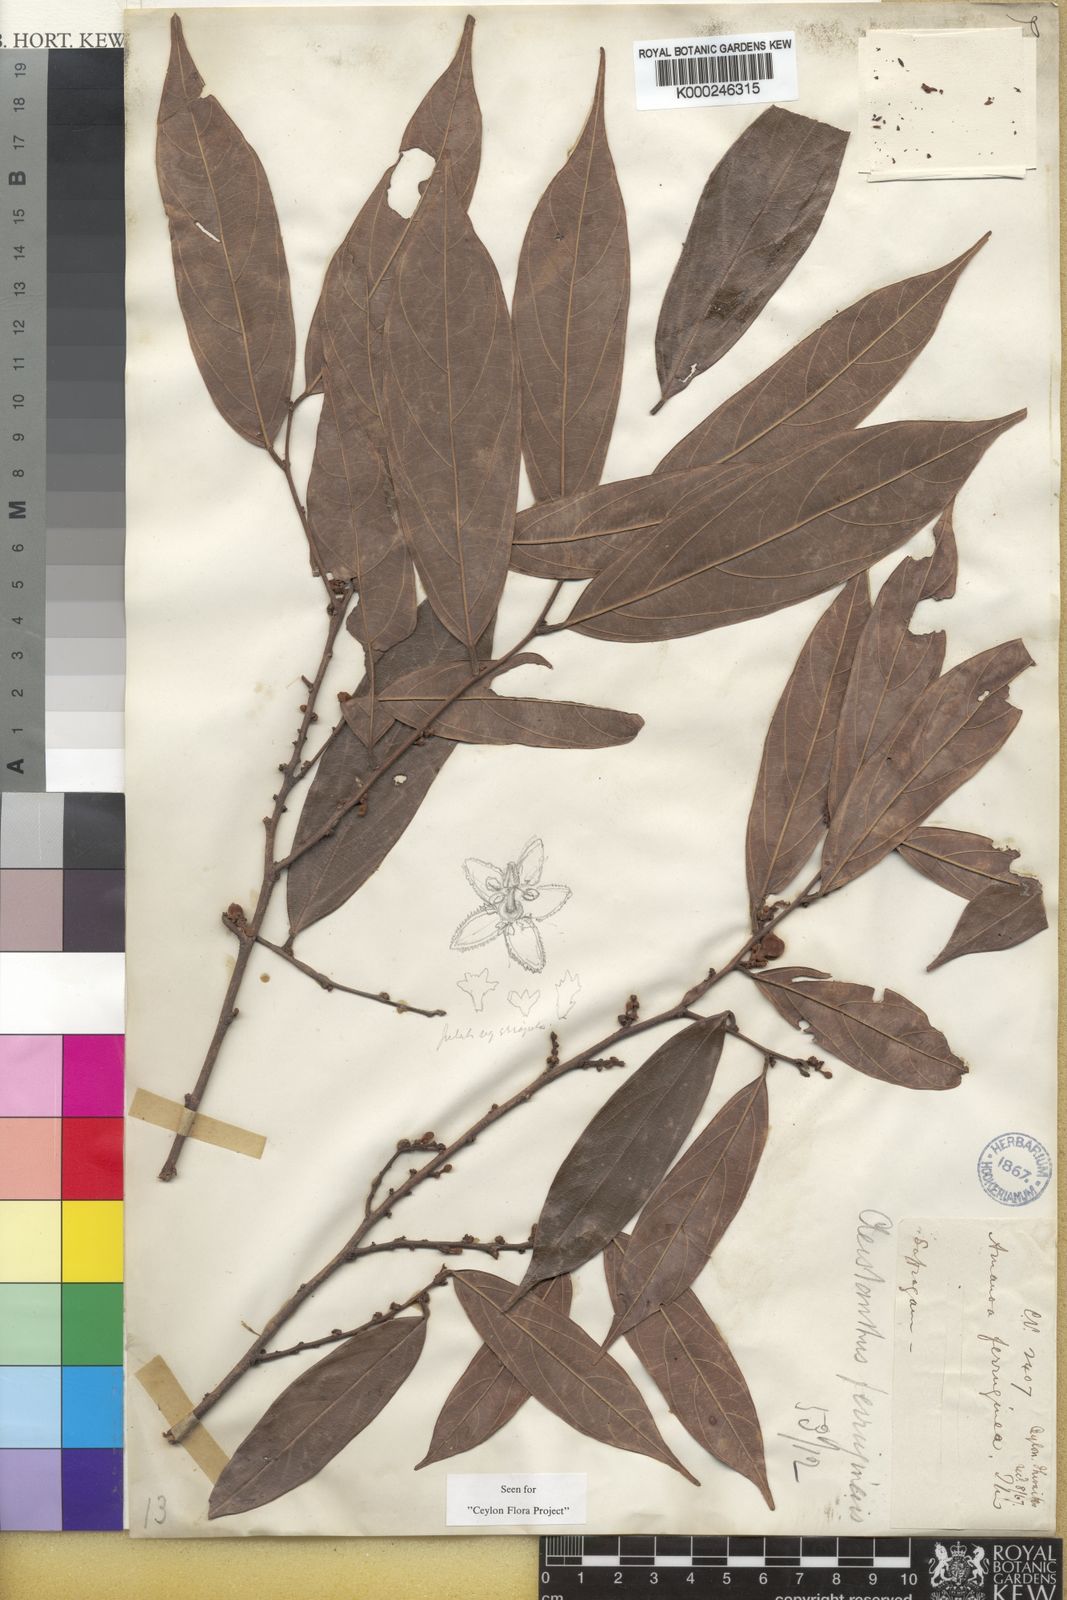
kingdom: Plantae
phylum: Tracheophyta
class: Magnoliopsida
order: Malpighiales
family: Phyllanthaceae
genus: Cleistanthus
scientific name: Cleistanthus
